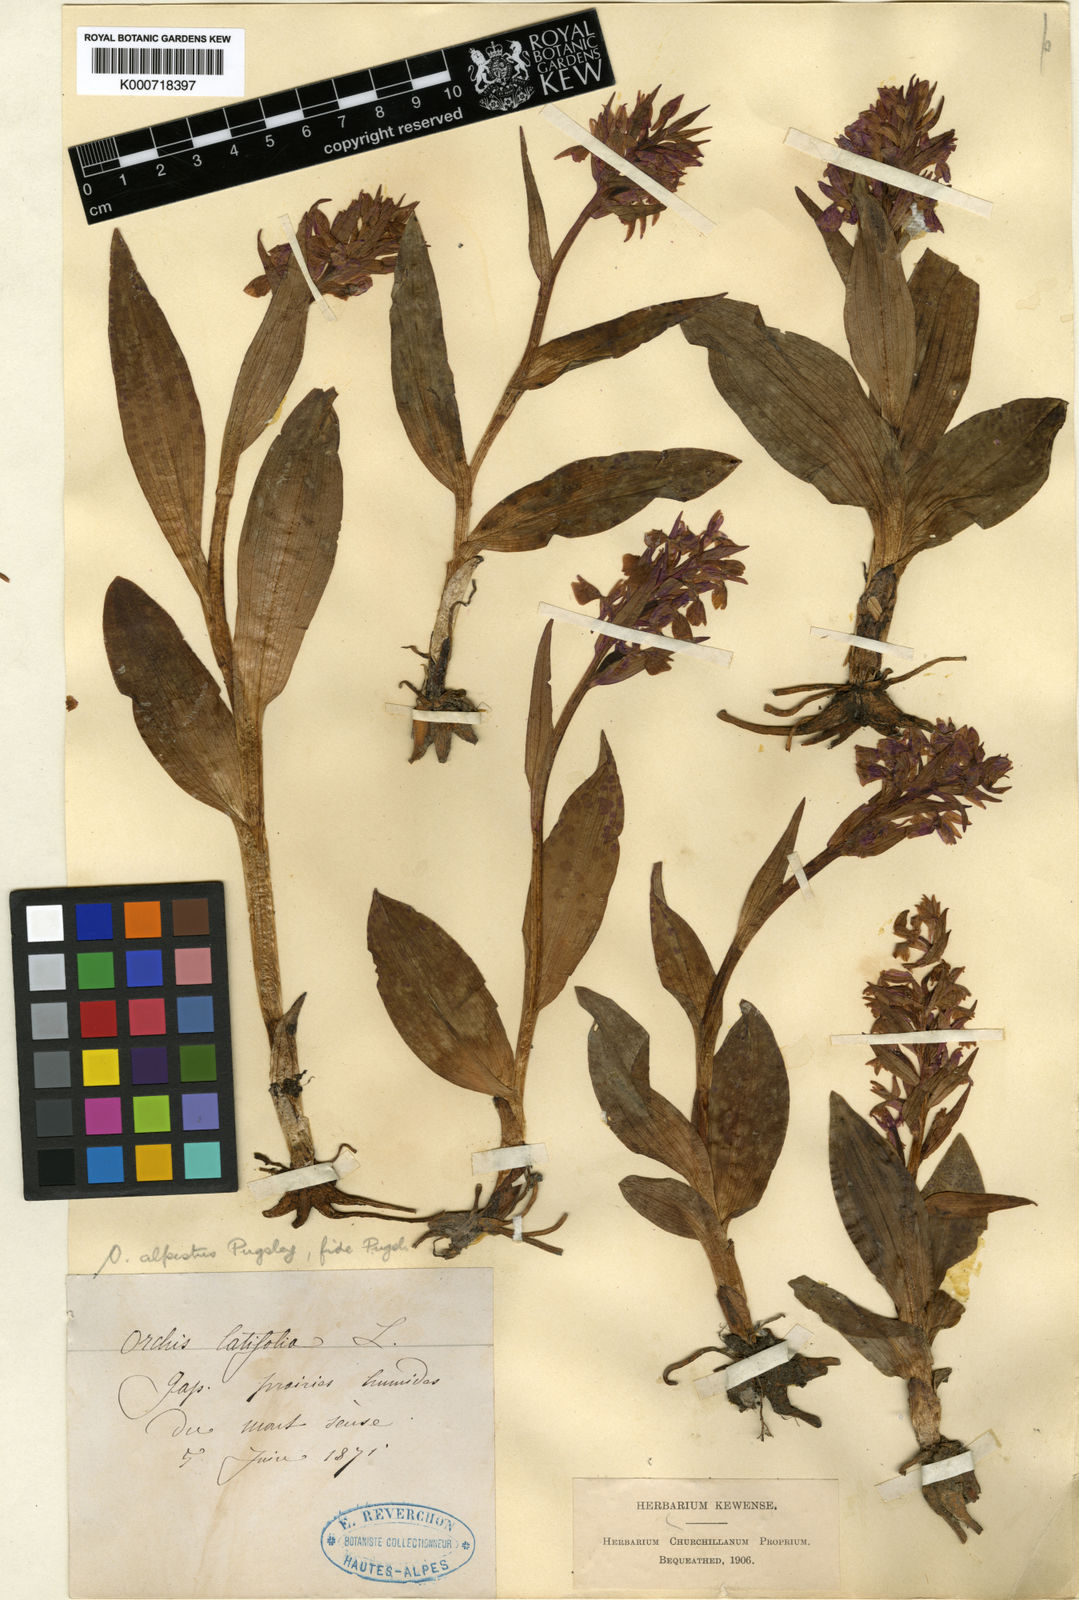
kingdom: Plantae
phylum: Tracheophyta
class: Liliopsida
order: Asparagales
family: Orchidaceae
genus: Dactylorhiza
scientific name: Dactylorhiza majalis
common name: Marsh orchid
